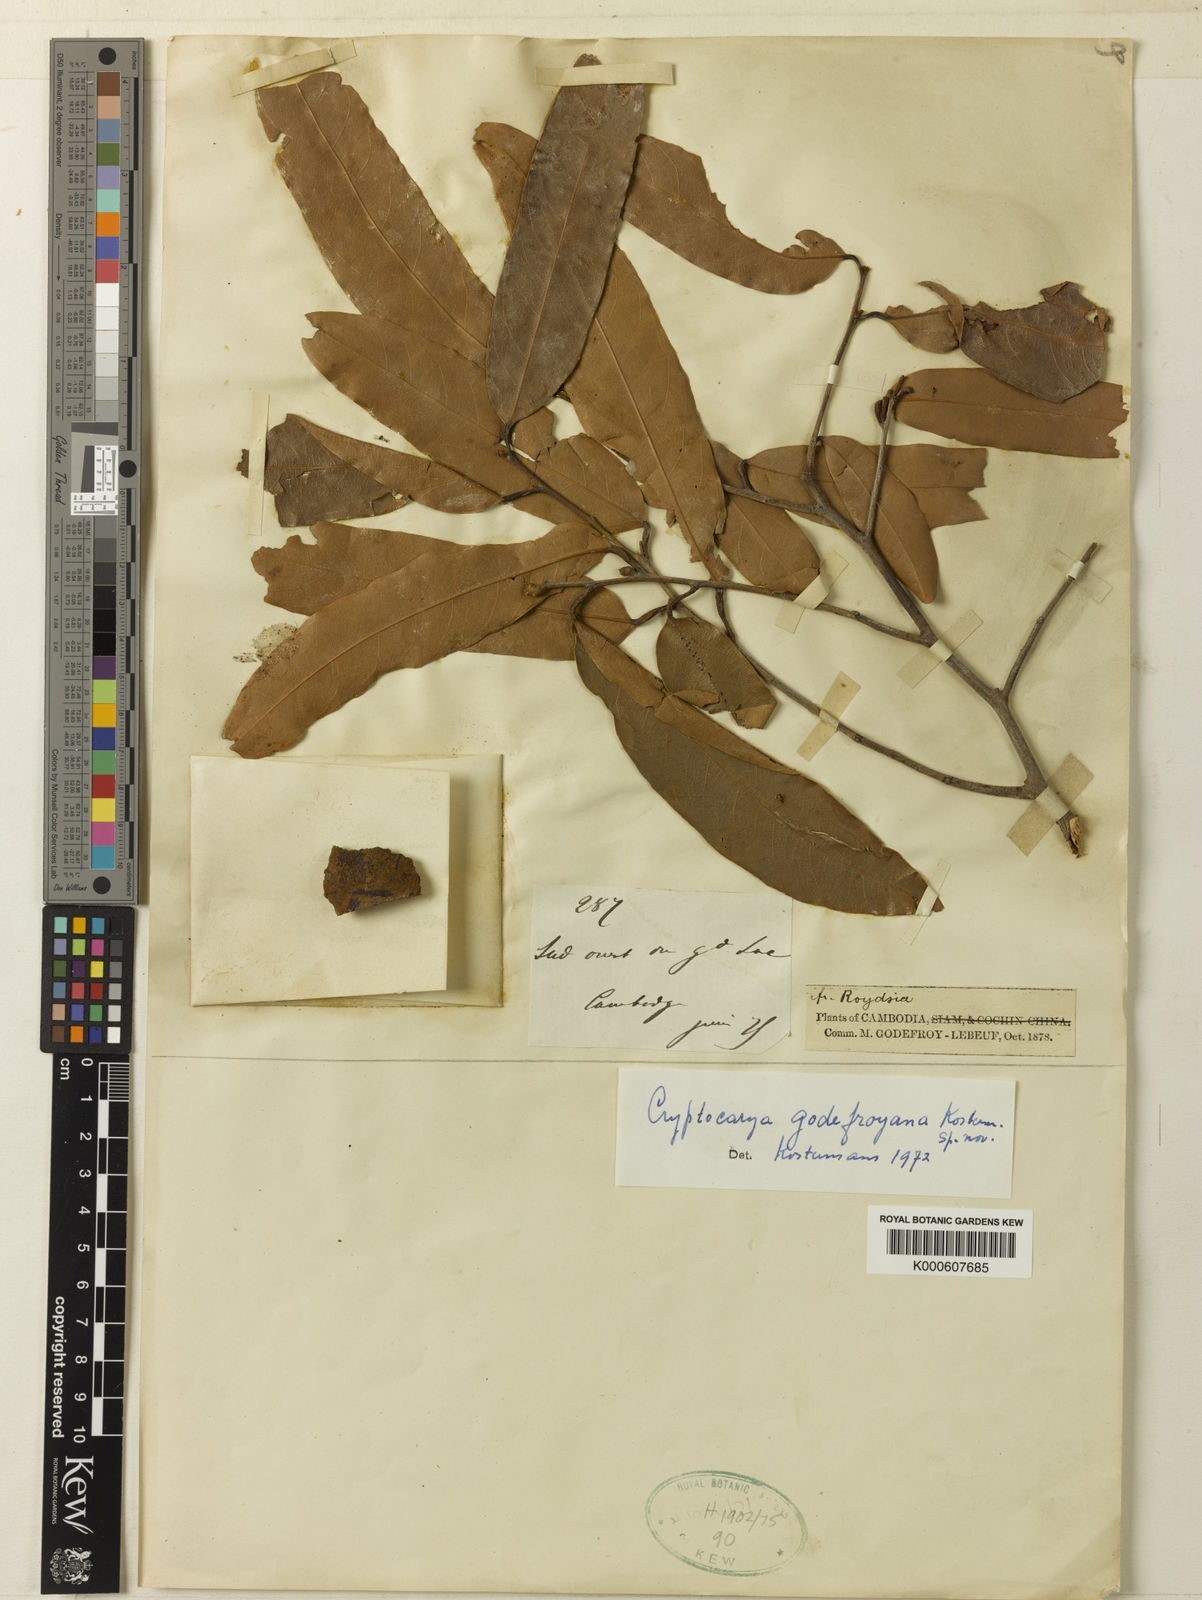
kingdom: Plantae
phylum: Tracheophyta
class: Magnoliopsida
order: Laurales
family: Lauraceae
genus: Cryptocarya
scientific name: Cryptocarya
